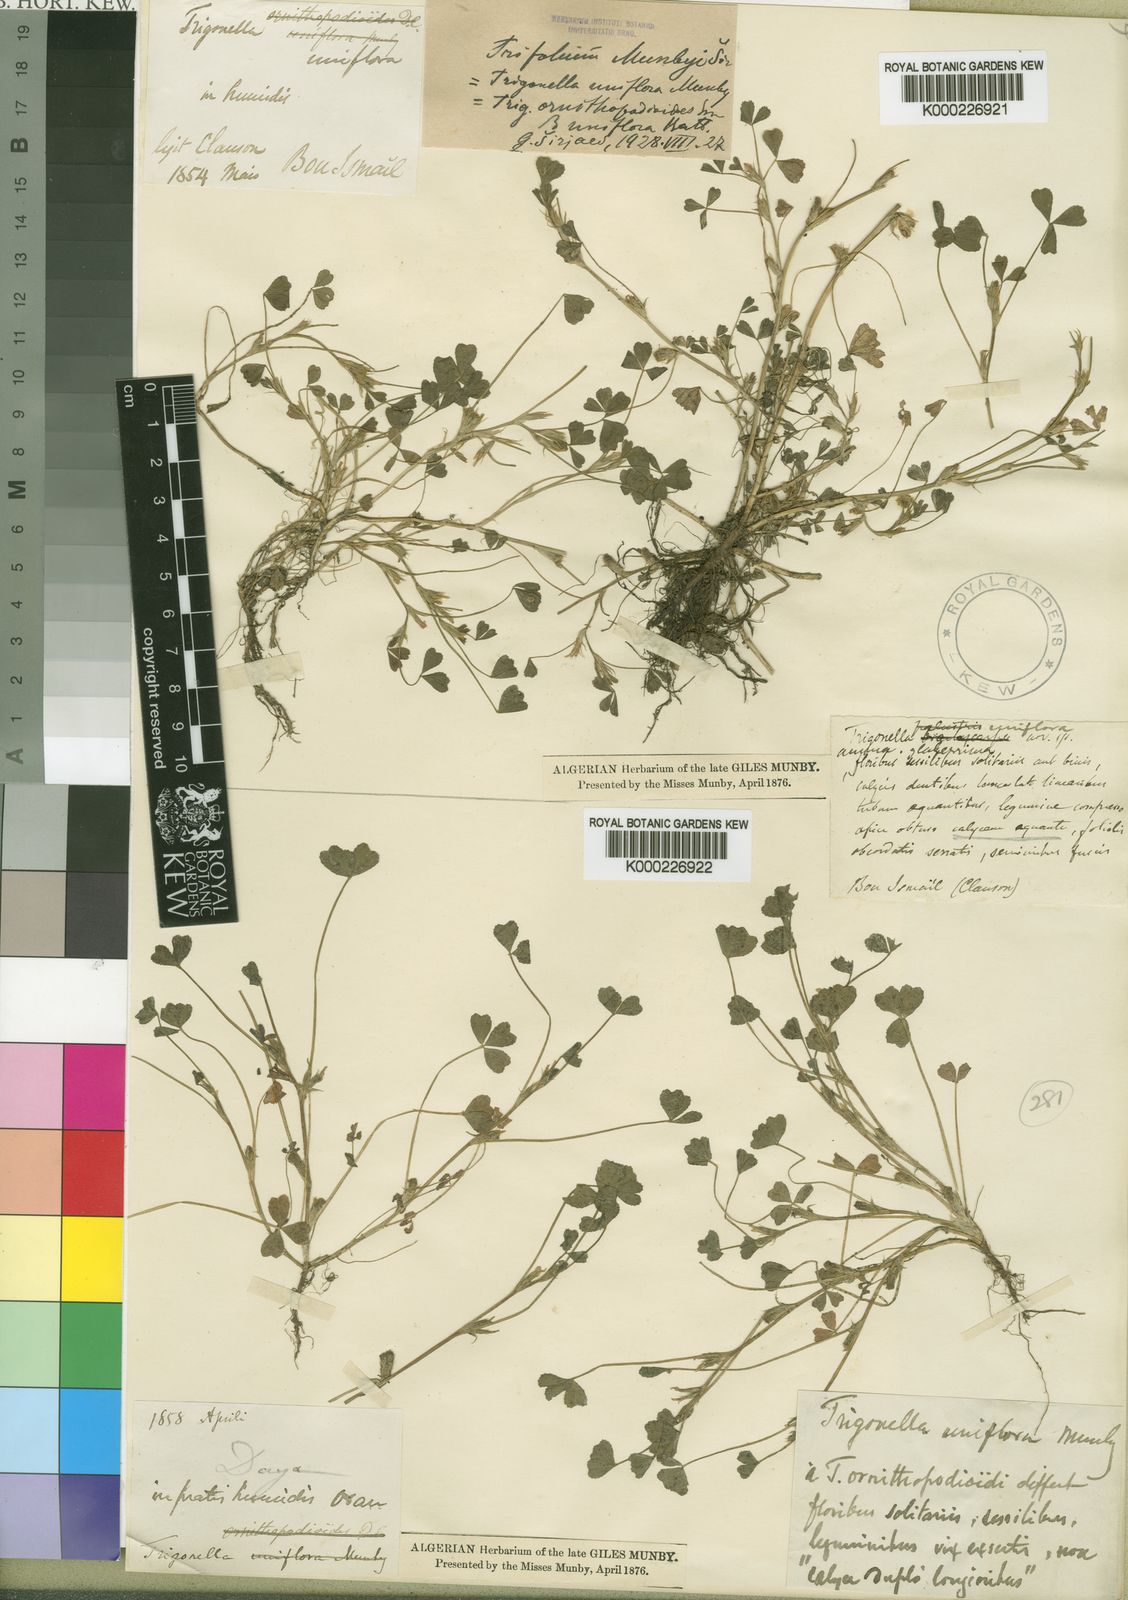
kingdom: Plantae
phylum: Tracheophyta
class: Magnoliopsida
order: Fabales
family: Fabaceae
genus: Trifolium
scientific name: Trifolium
